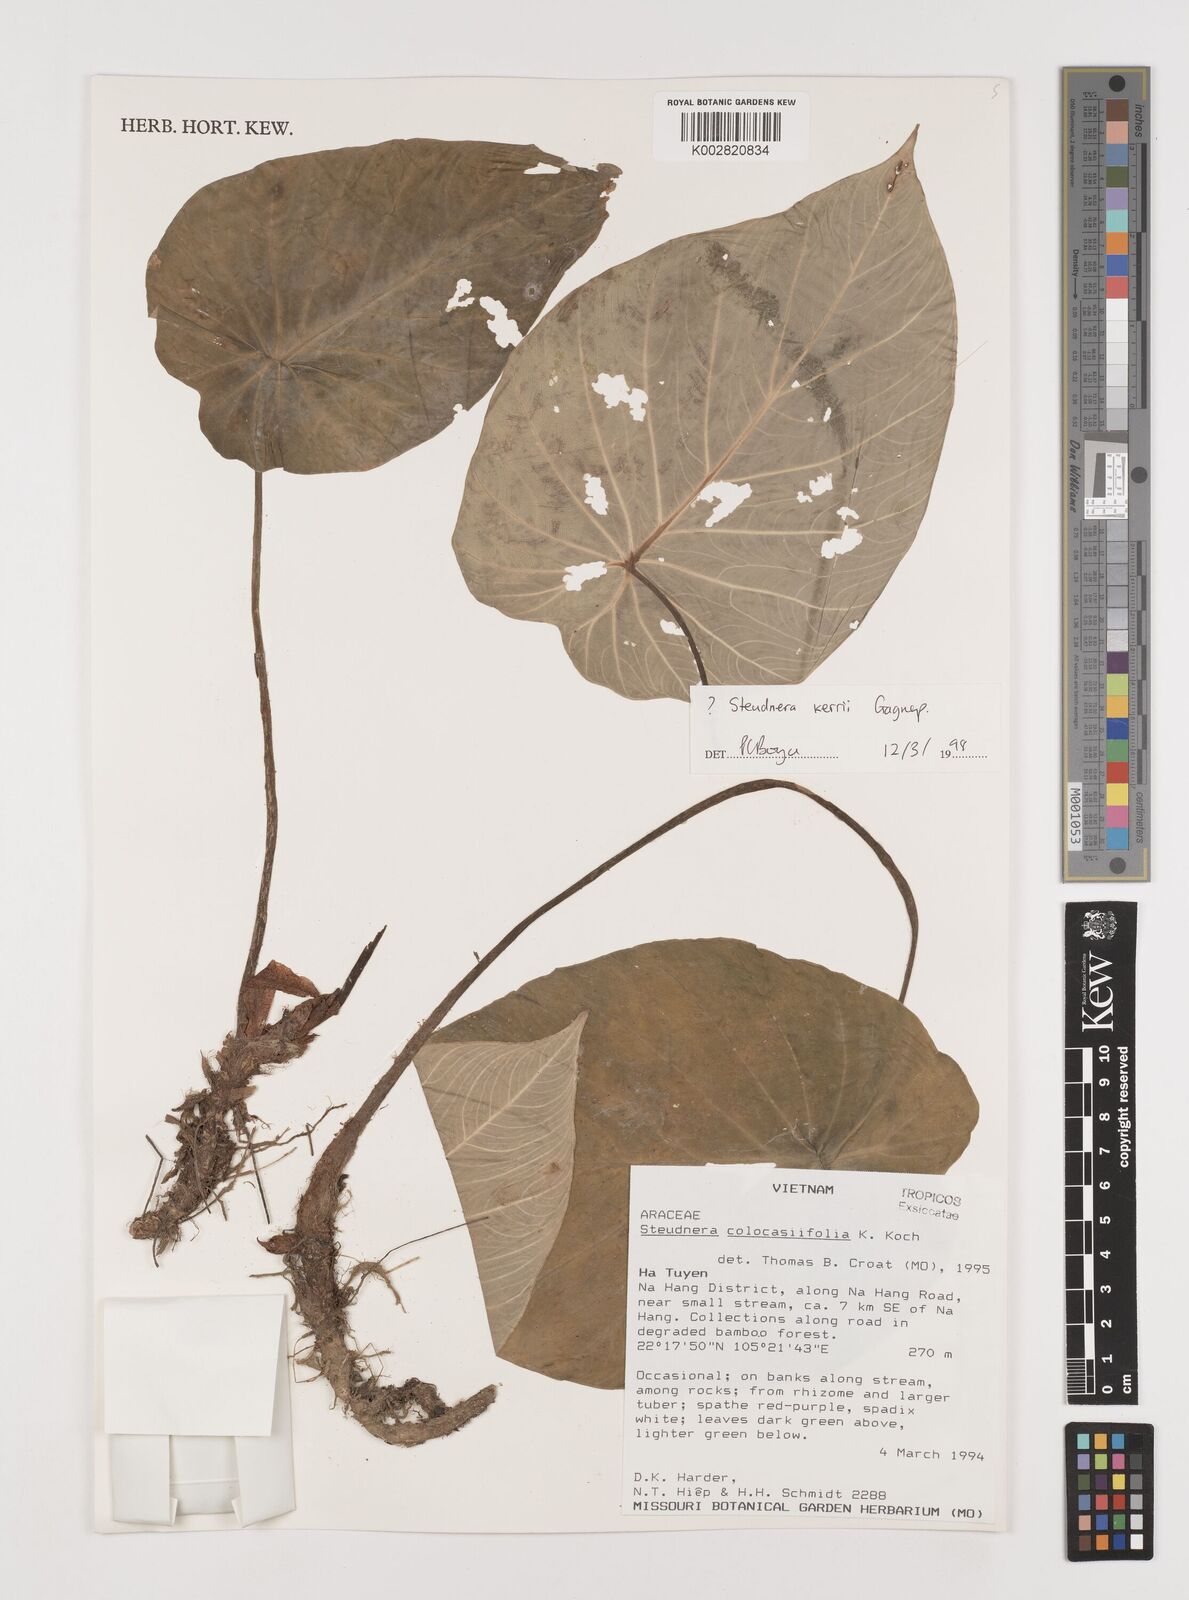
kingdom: Plantae
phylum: Tracheophyta
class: Liliopsida
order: Alismatales
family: Araceae
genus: Steudnera
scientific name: Steudnera kerrii
